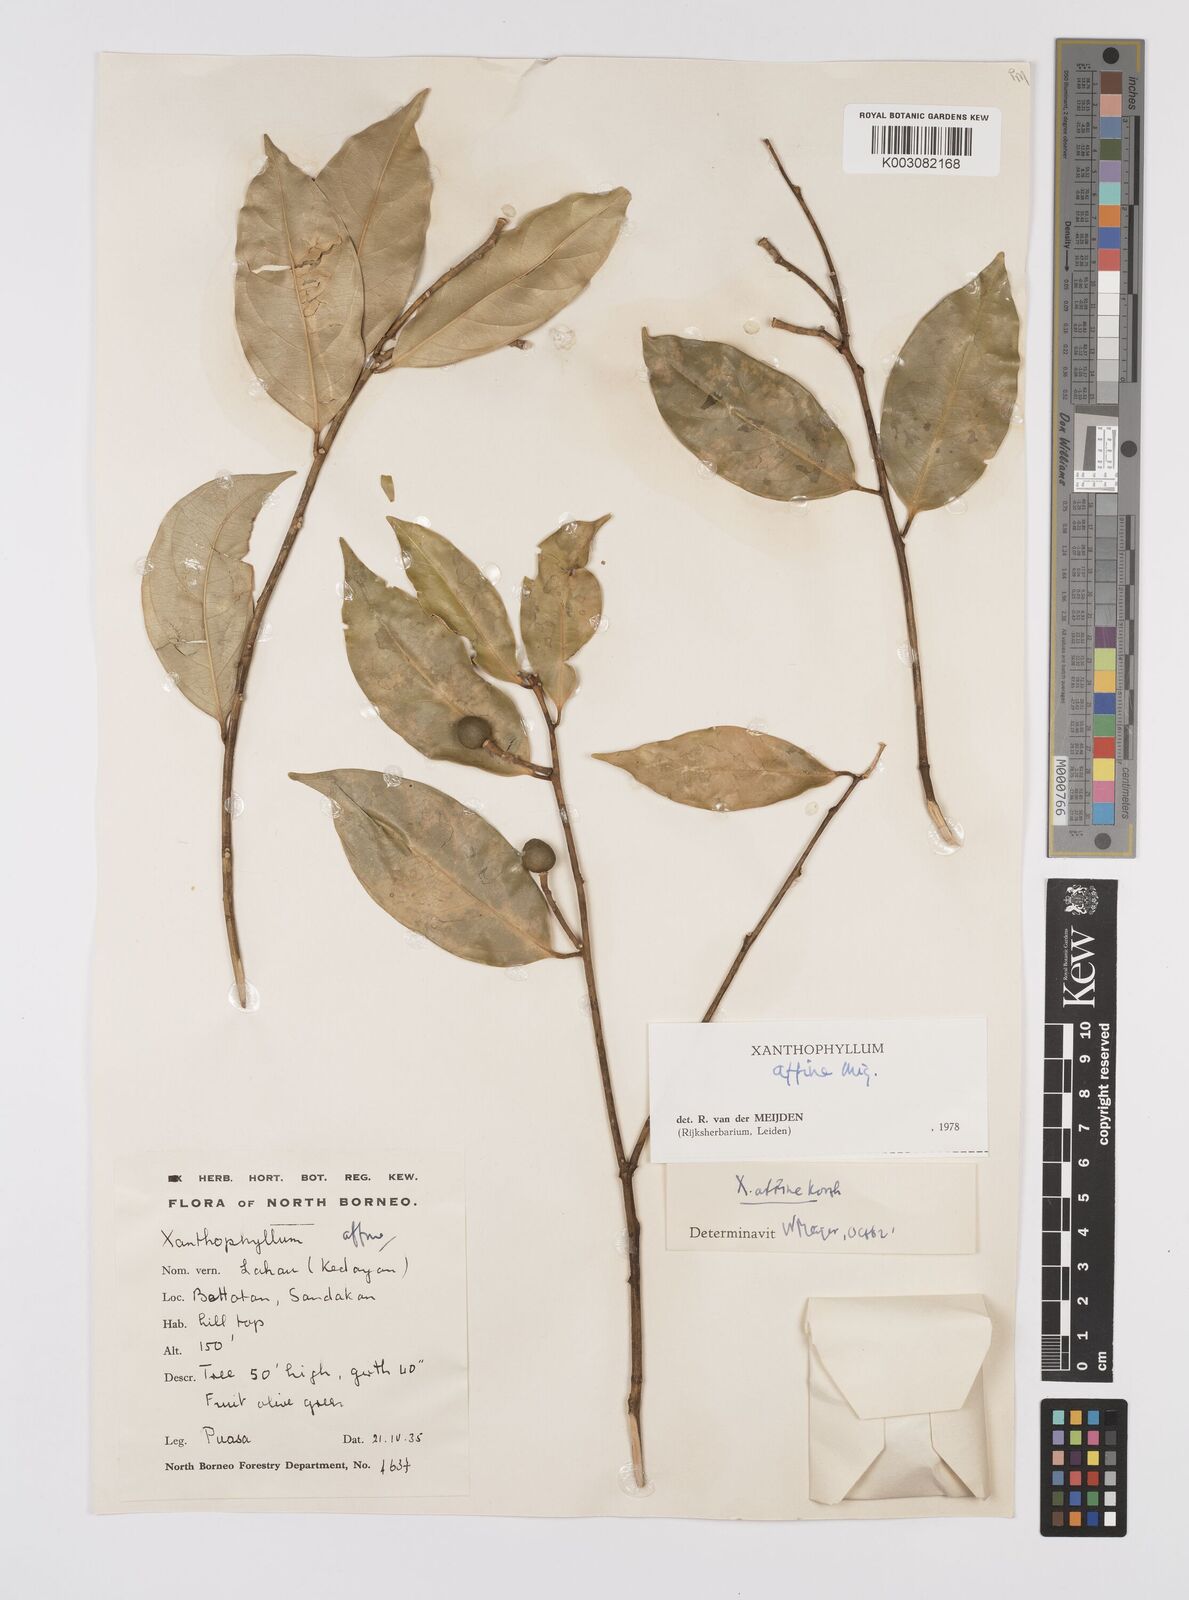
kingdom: Plantae
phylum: Tracheophyta
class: Magnoliopsida
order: Fabales
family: Polygalaceae
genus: Xanthophyllum
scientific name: Xanthophyllum flavescens
